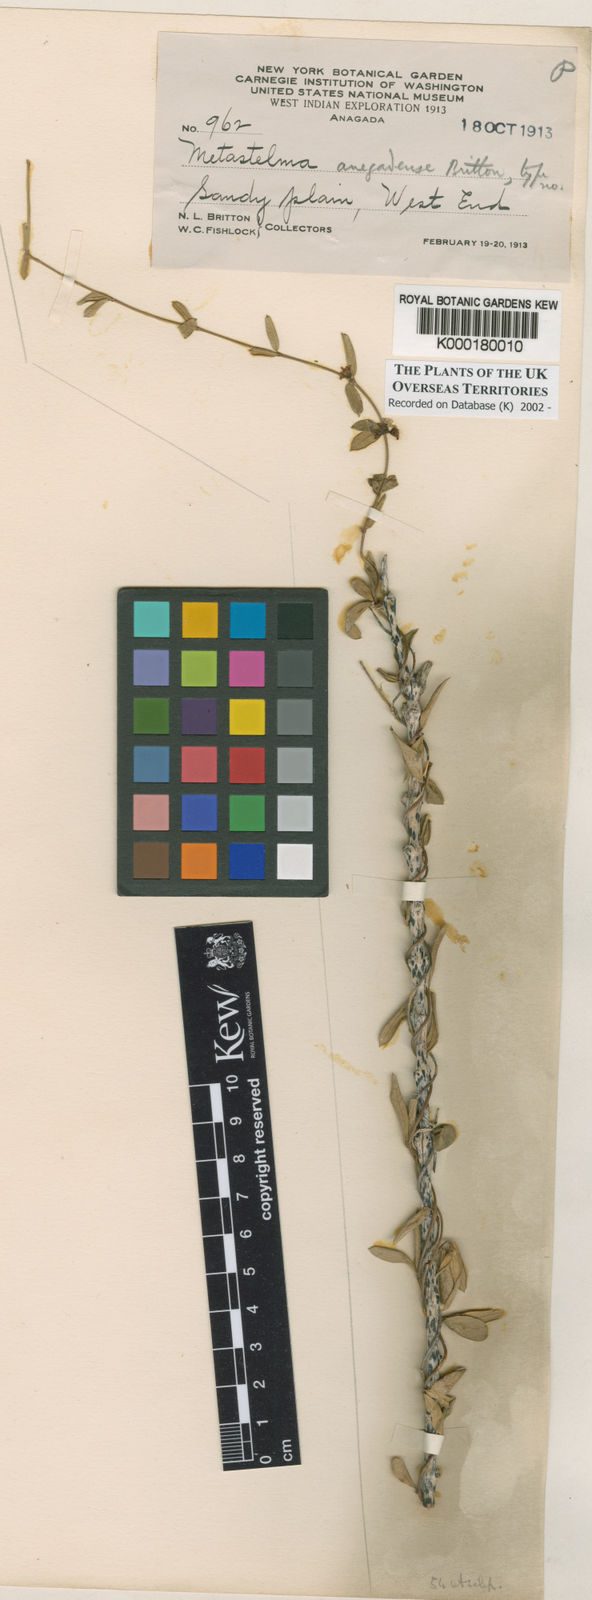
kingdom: Plantae
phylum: Tracheophyta
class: Magnoliopsida
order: Gentianales
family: Apocynaceae
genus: Metastelma
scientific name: Metastelma anegadense
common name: Wire wist
